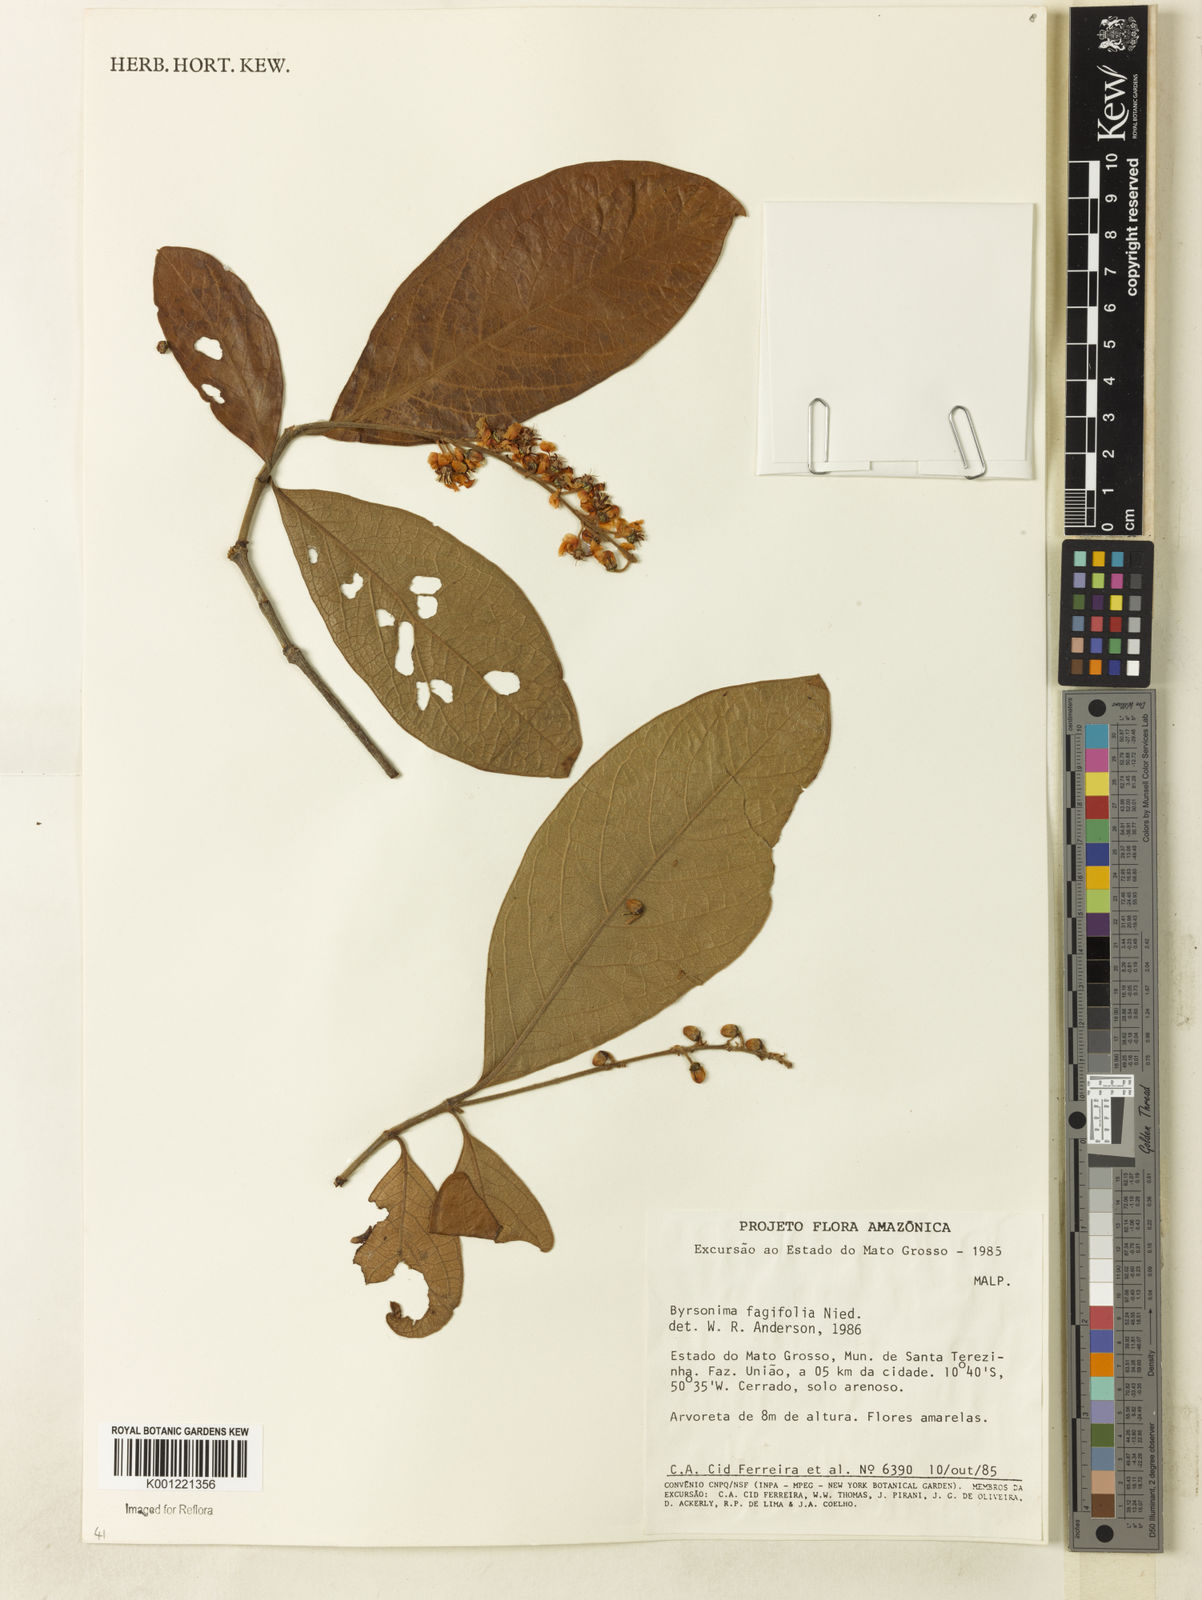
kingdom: Plantae
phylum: Tracheophyta
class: Magnoliopsida
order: Malpighiales
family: Malpighiaceae
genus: Byrsonima
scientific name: Byrsonima crassifolia
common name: Golden spoon
